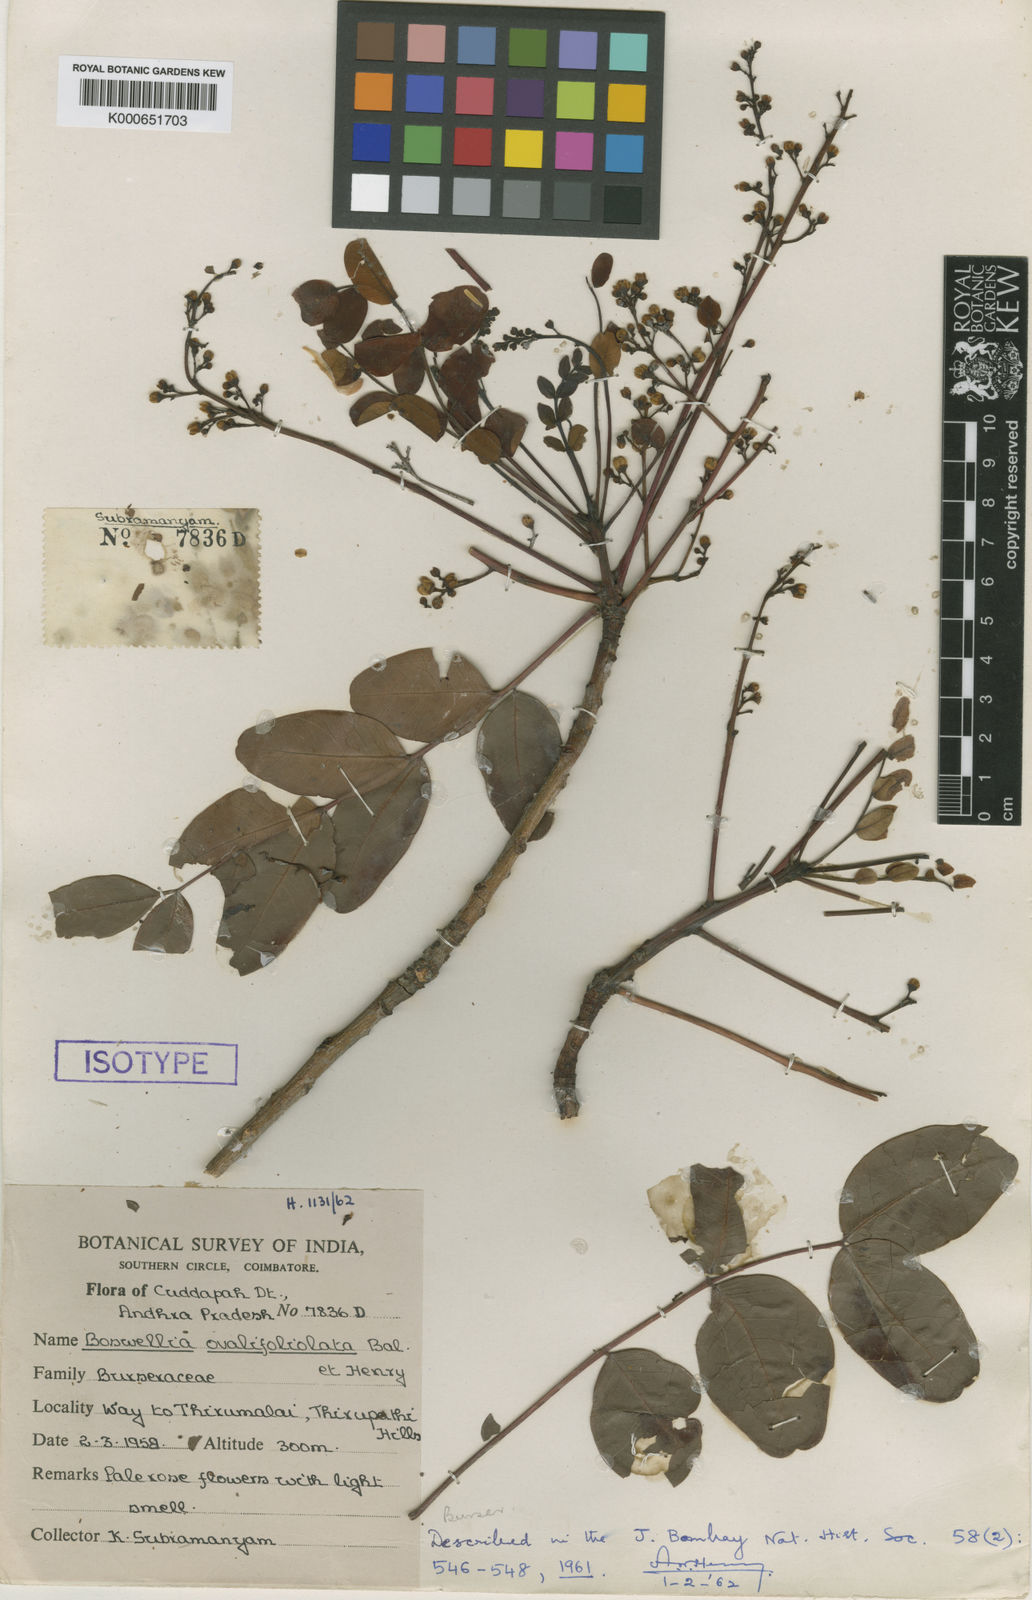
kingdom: Plantae
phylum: Tracheophyta
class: Magnoliopsida
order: Sapindales
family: Burseraceae
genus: Boswellia
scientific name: Boswellia ovalifoliolata
